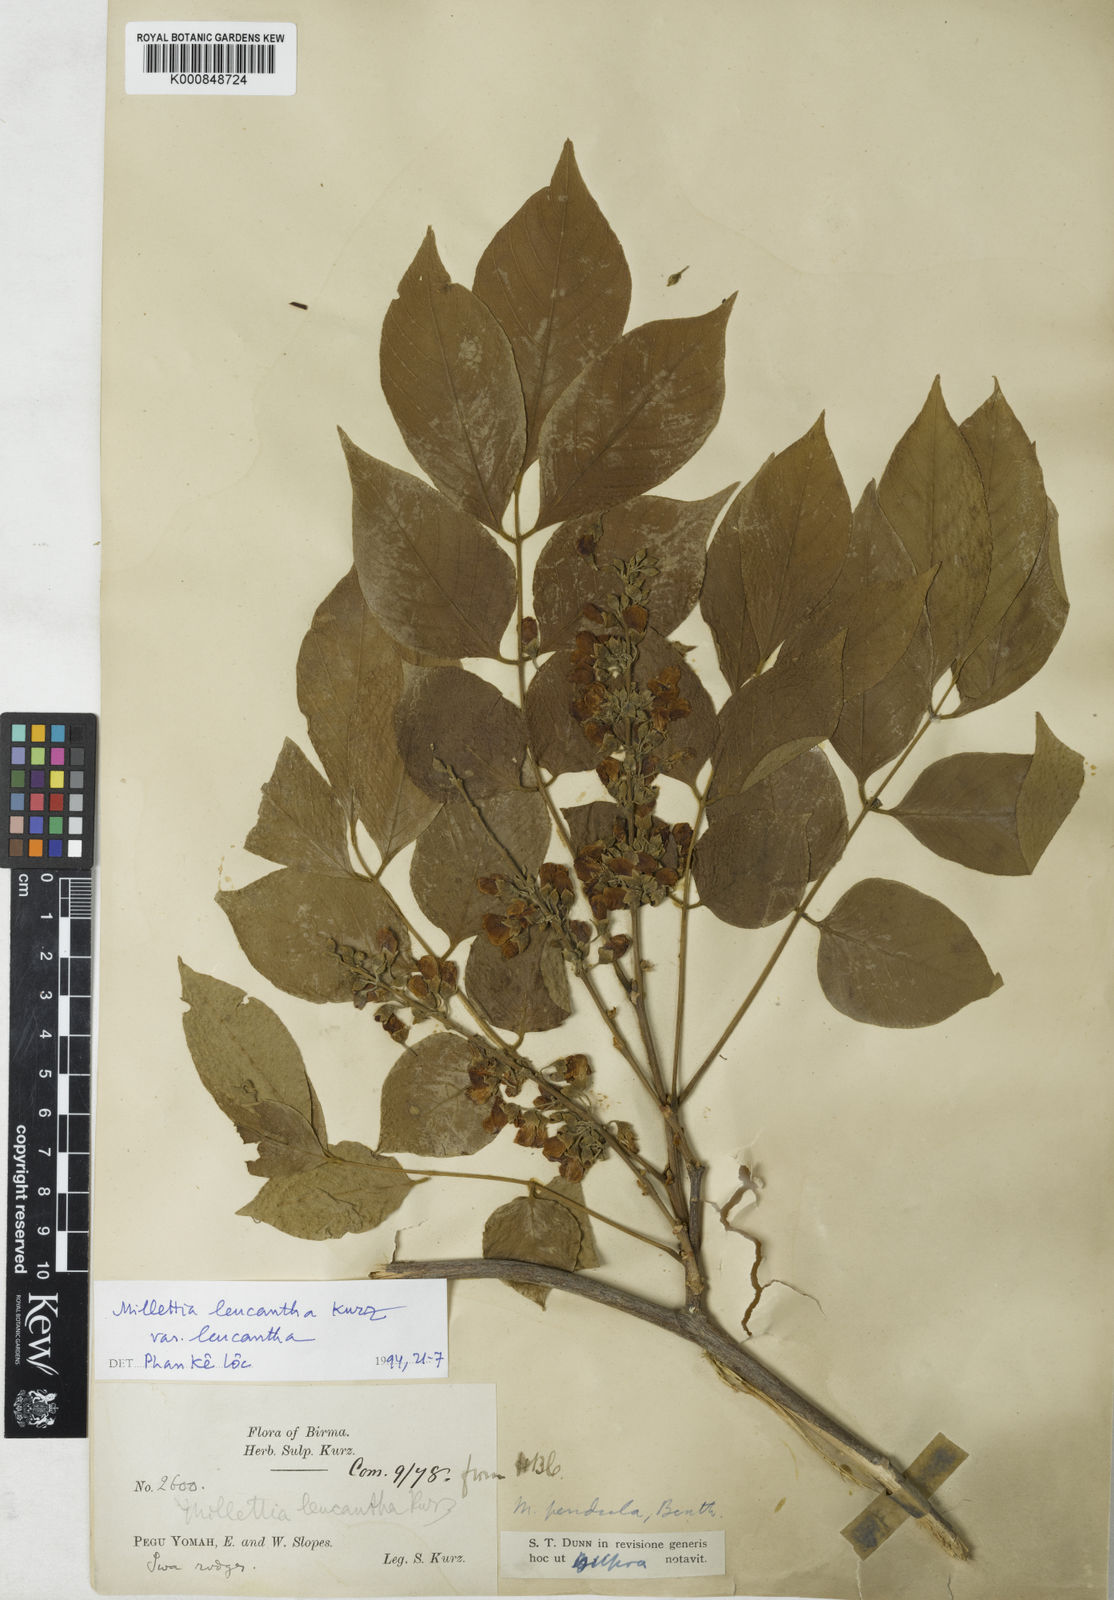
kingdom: Plantae
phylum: Tracheophyta
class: Magnoliopsida
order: Fabales
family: Fabaceae
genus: Imbralyx
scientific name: Imbralyx leucanthus
